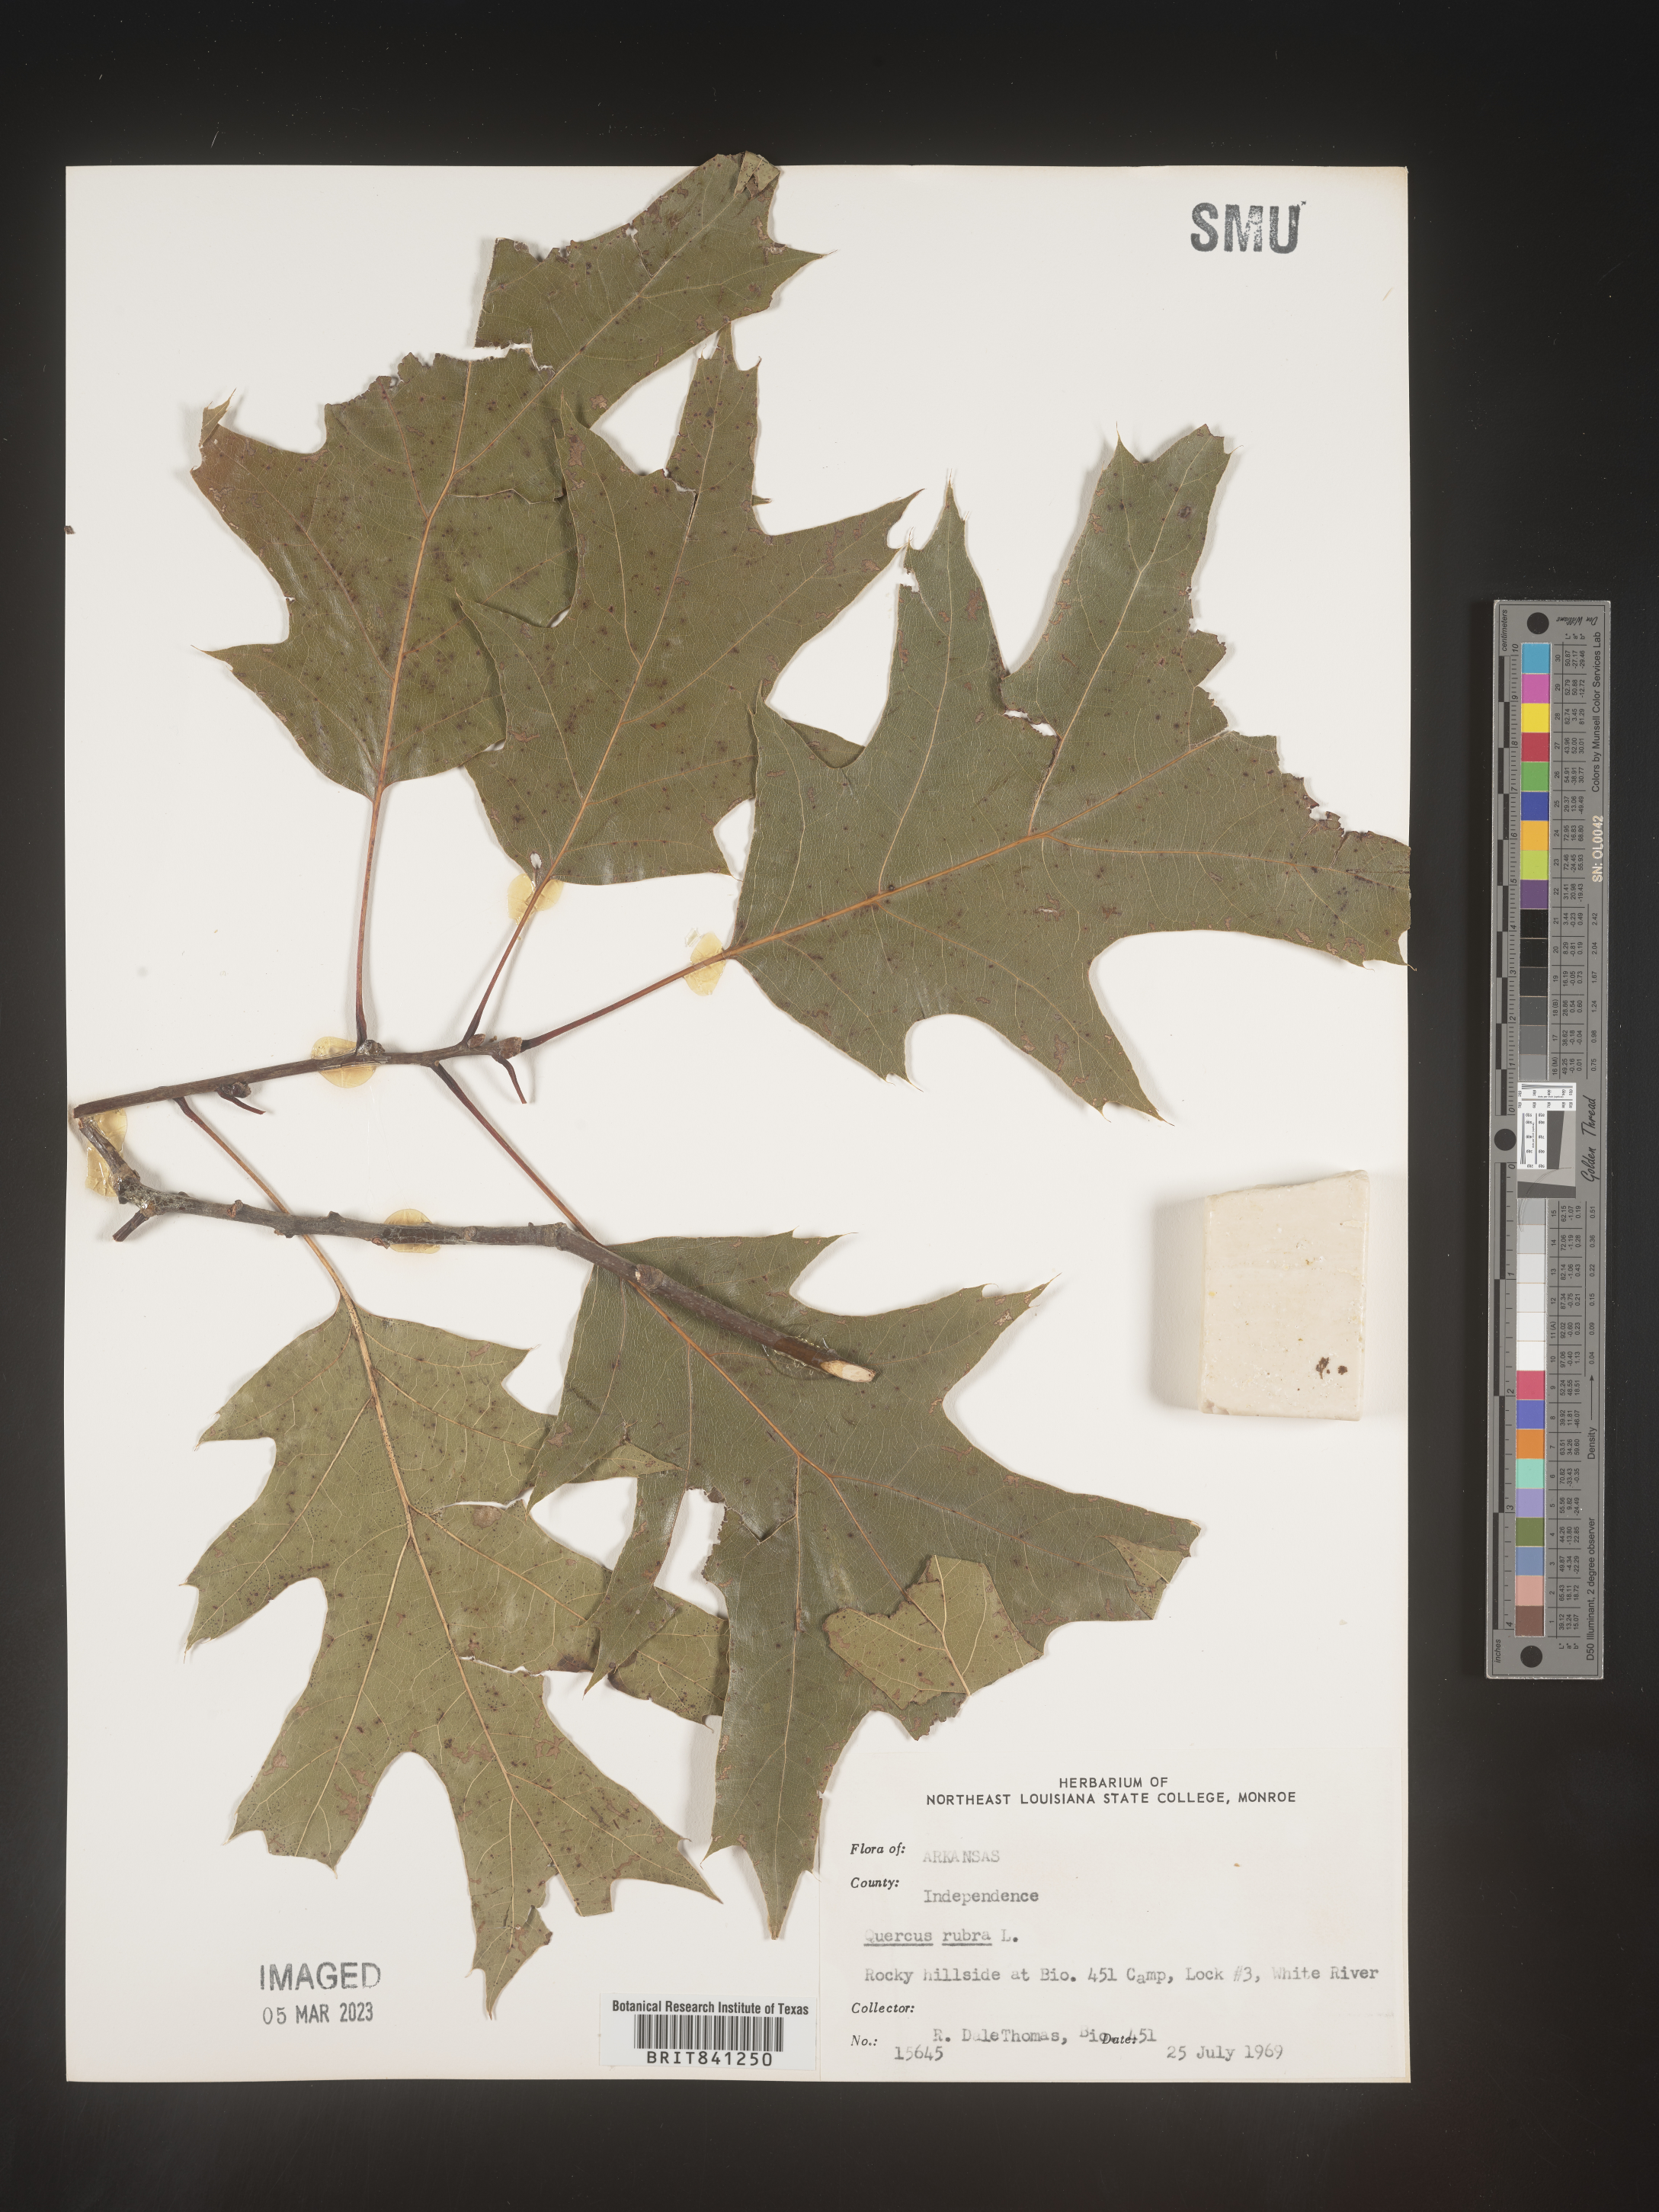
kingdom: Plantae
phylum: Tracheophyta
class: Magnoliopsida
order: Fagales
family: Fagaceae
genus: Quercus
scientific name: Quercus rubra
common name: Red oak
